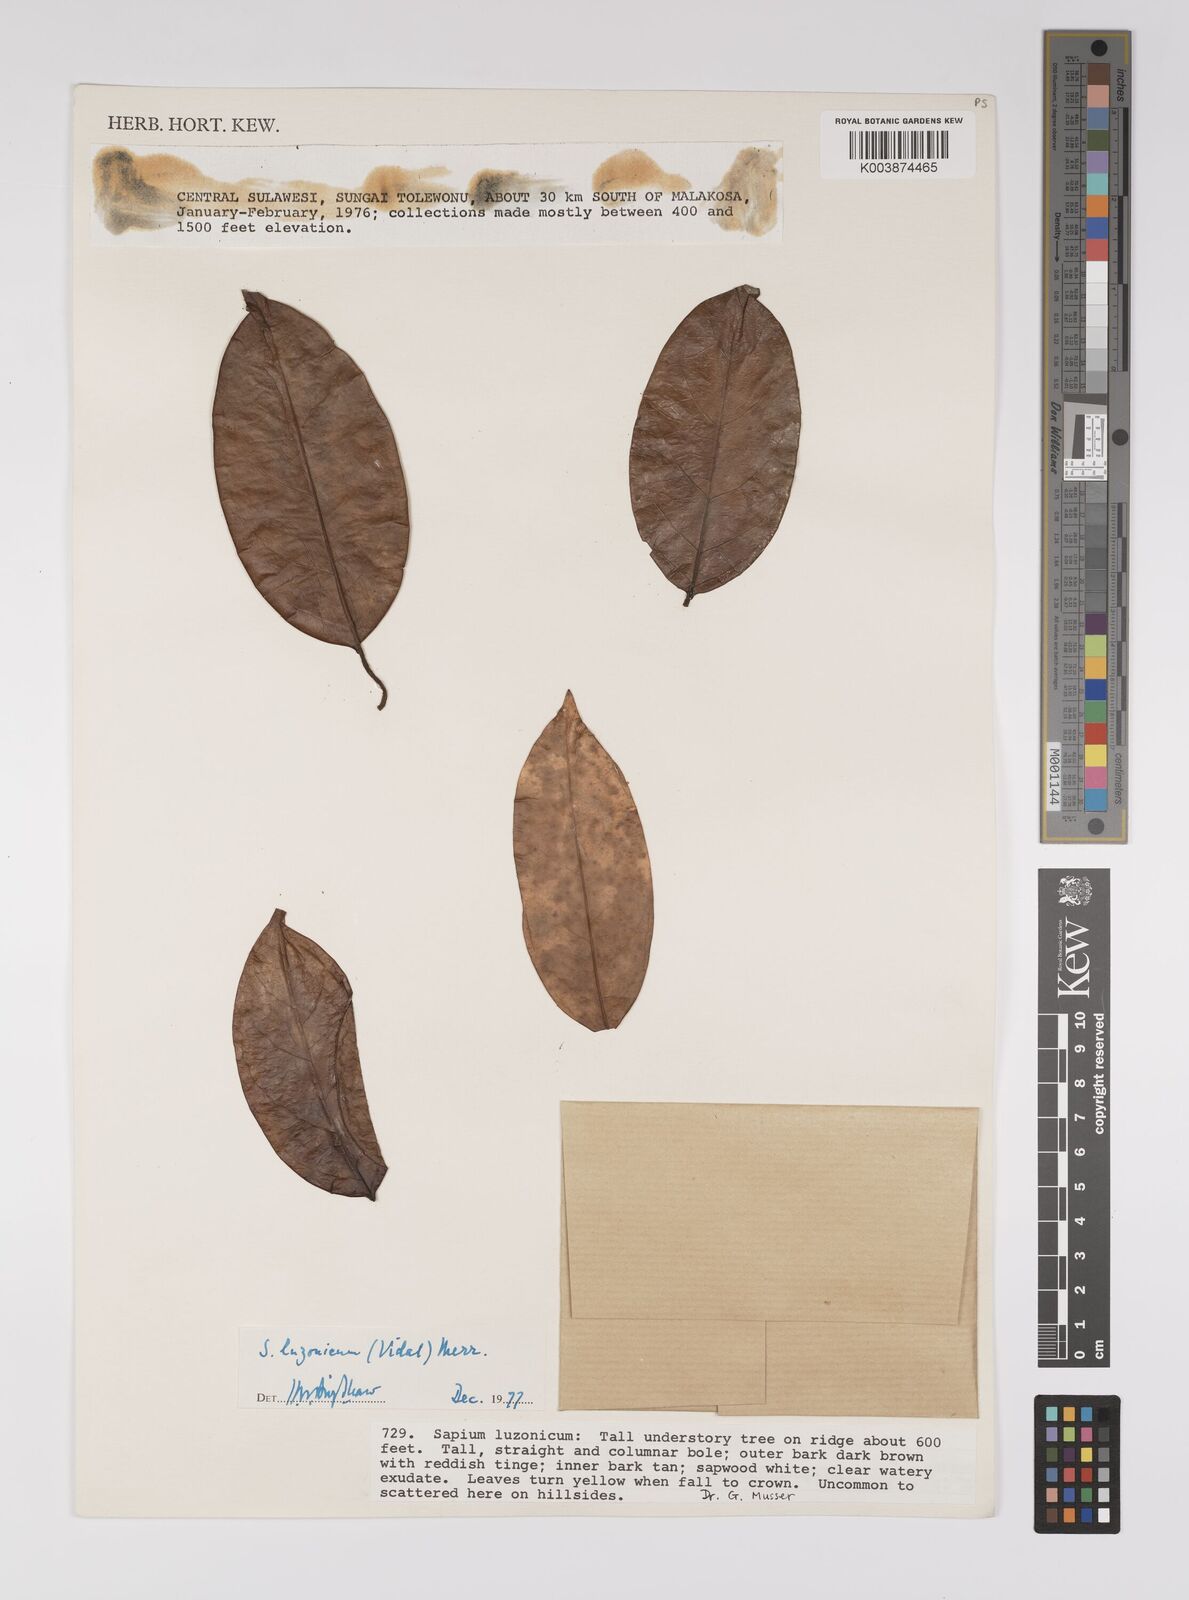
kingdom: Plantae
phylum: Tracheophyta
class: Magnoliopsida
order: Malpighiales
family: Euphorbiaceae
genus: Balakata
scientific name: Balakata luzonica
